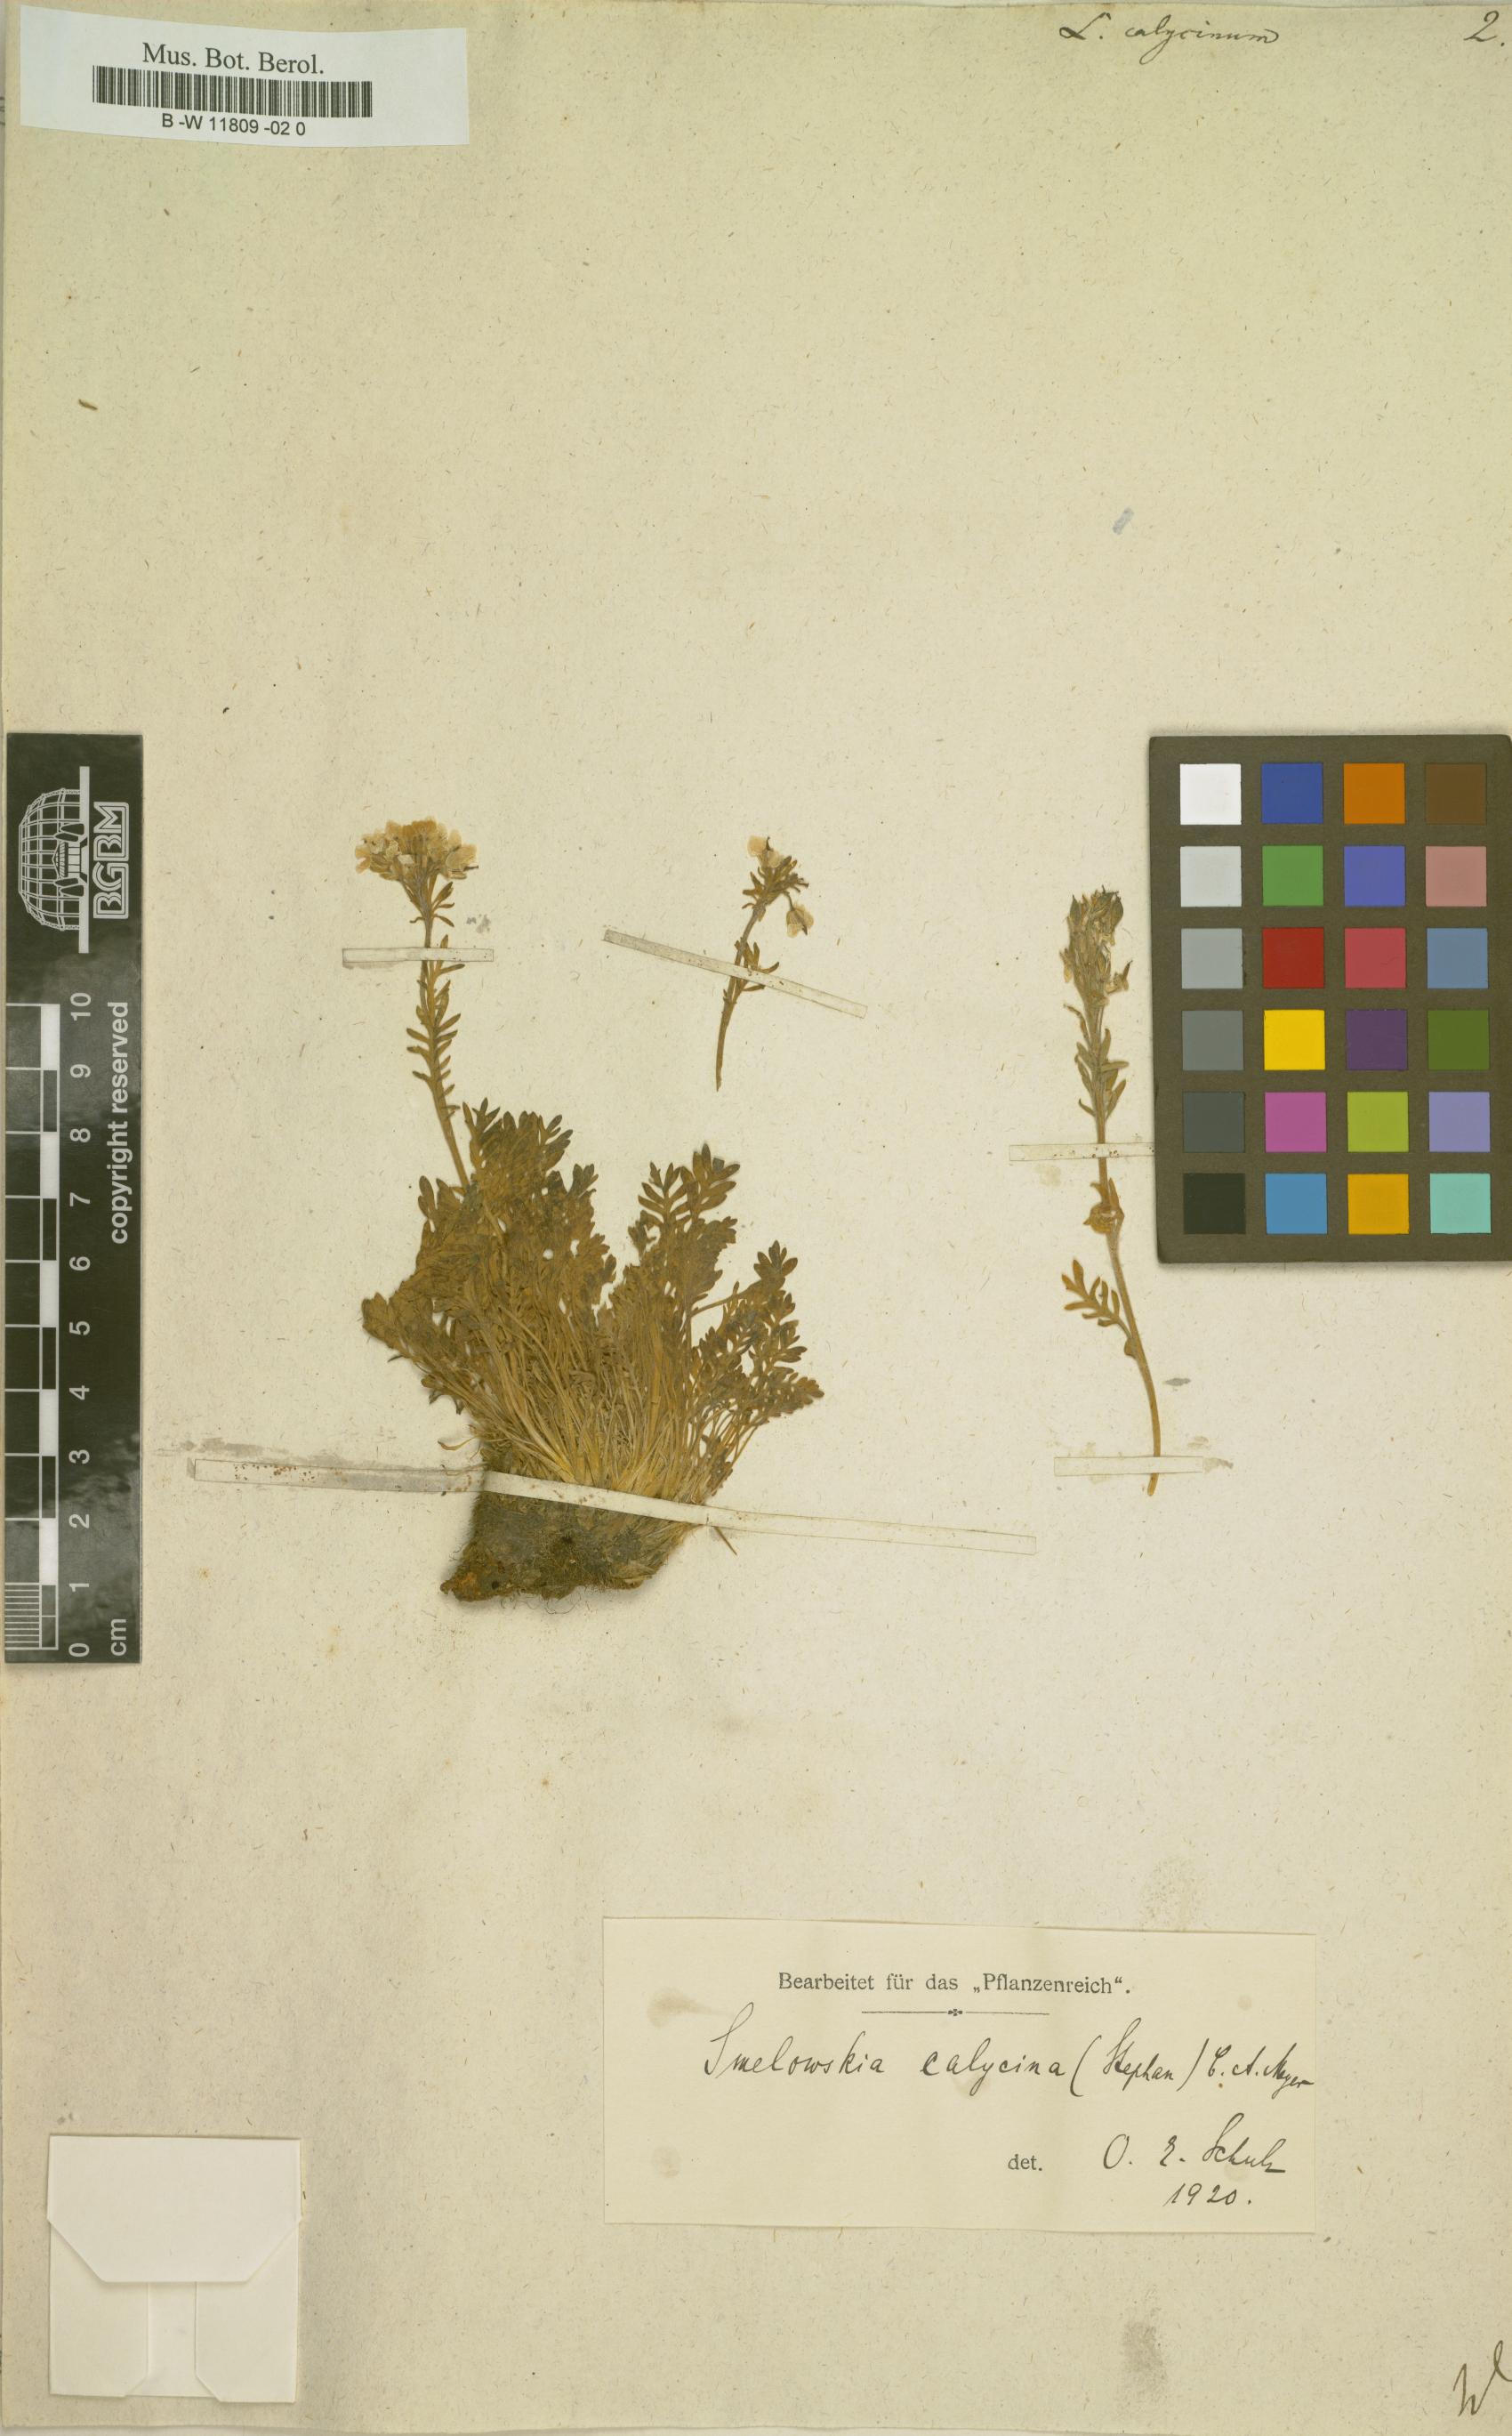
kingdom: Plantae
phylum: Tracheophyta
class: Magnoliopsida
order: Brassicales
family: Brassicaceae
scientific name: Brassicaceae
